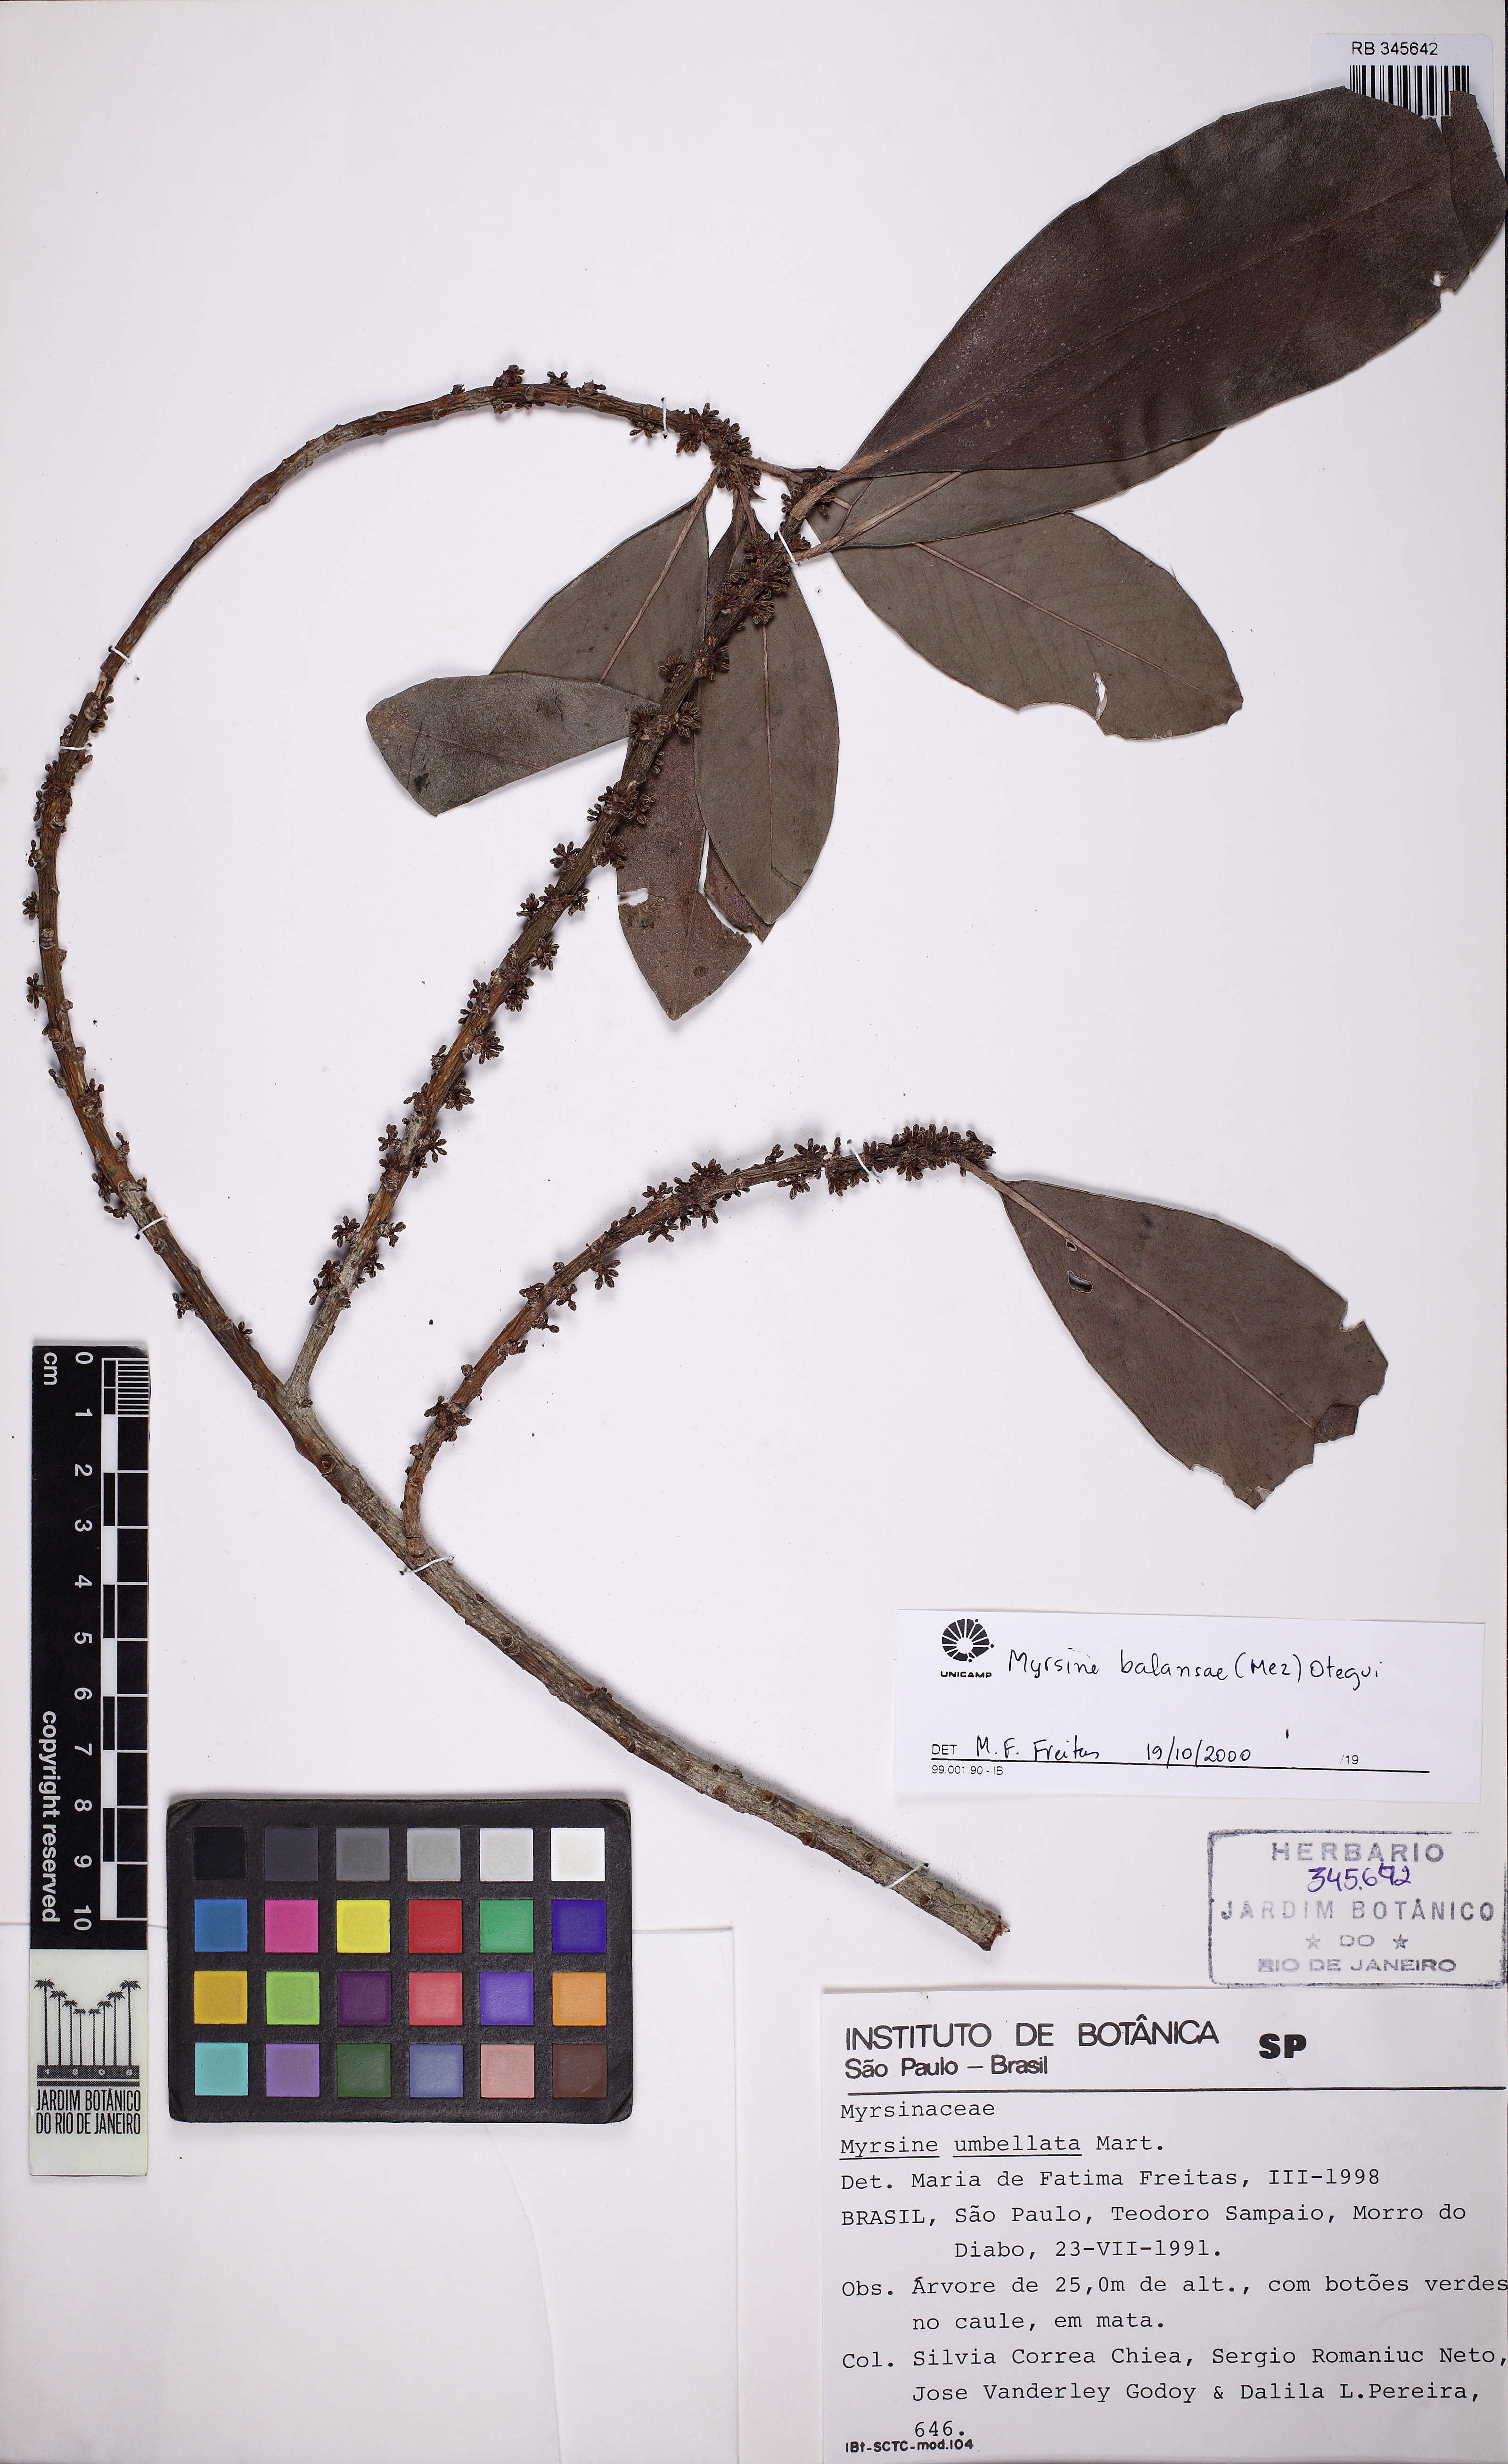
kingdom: Plantae
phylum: Tracheophyta
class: Magnoliopsida
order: Ericales
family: Primulaceae
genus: Myrsine
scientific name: Myrsine balansae
